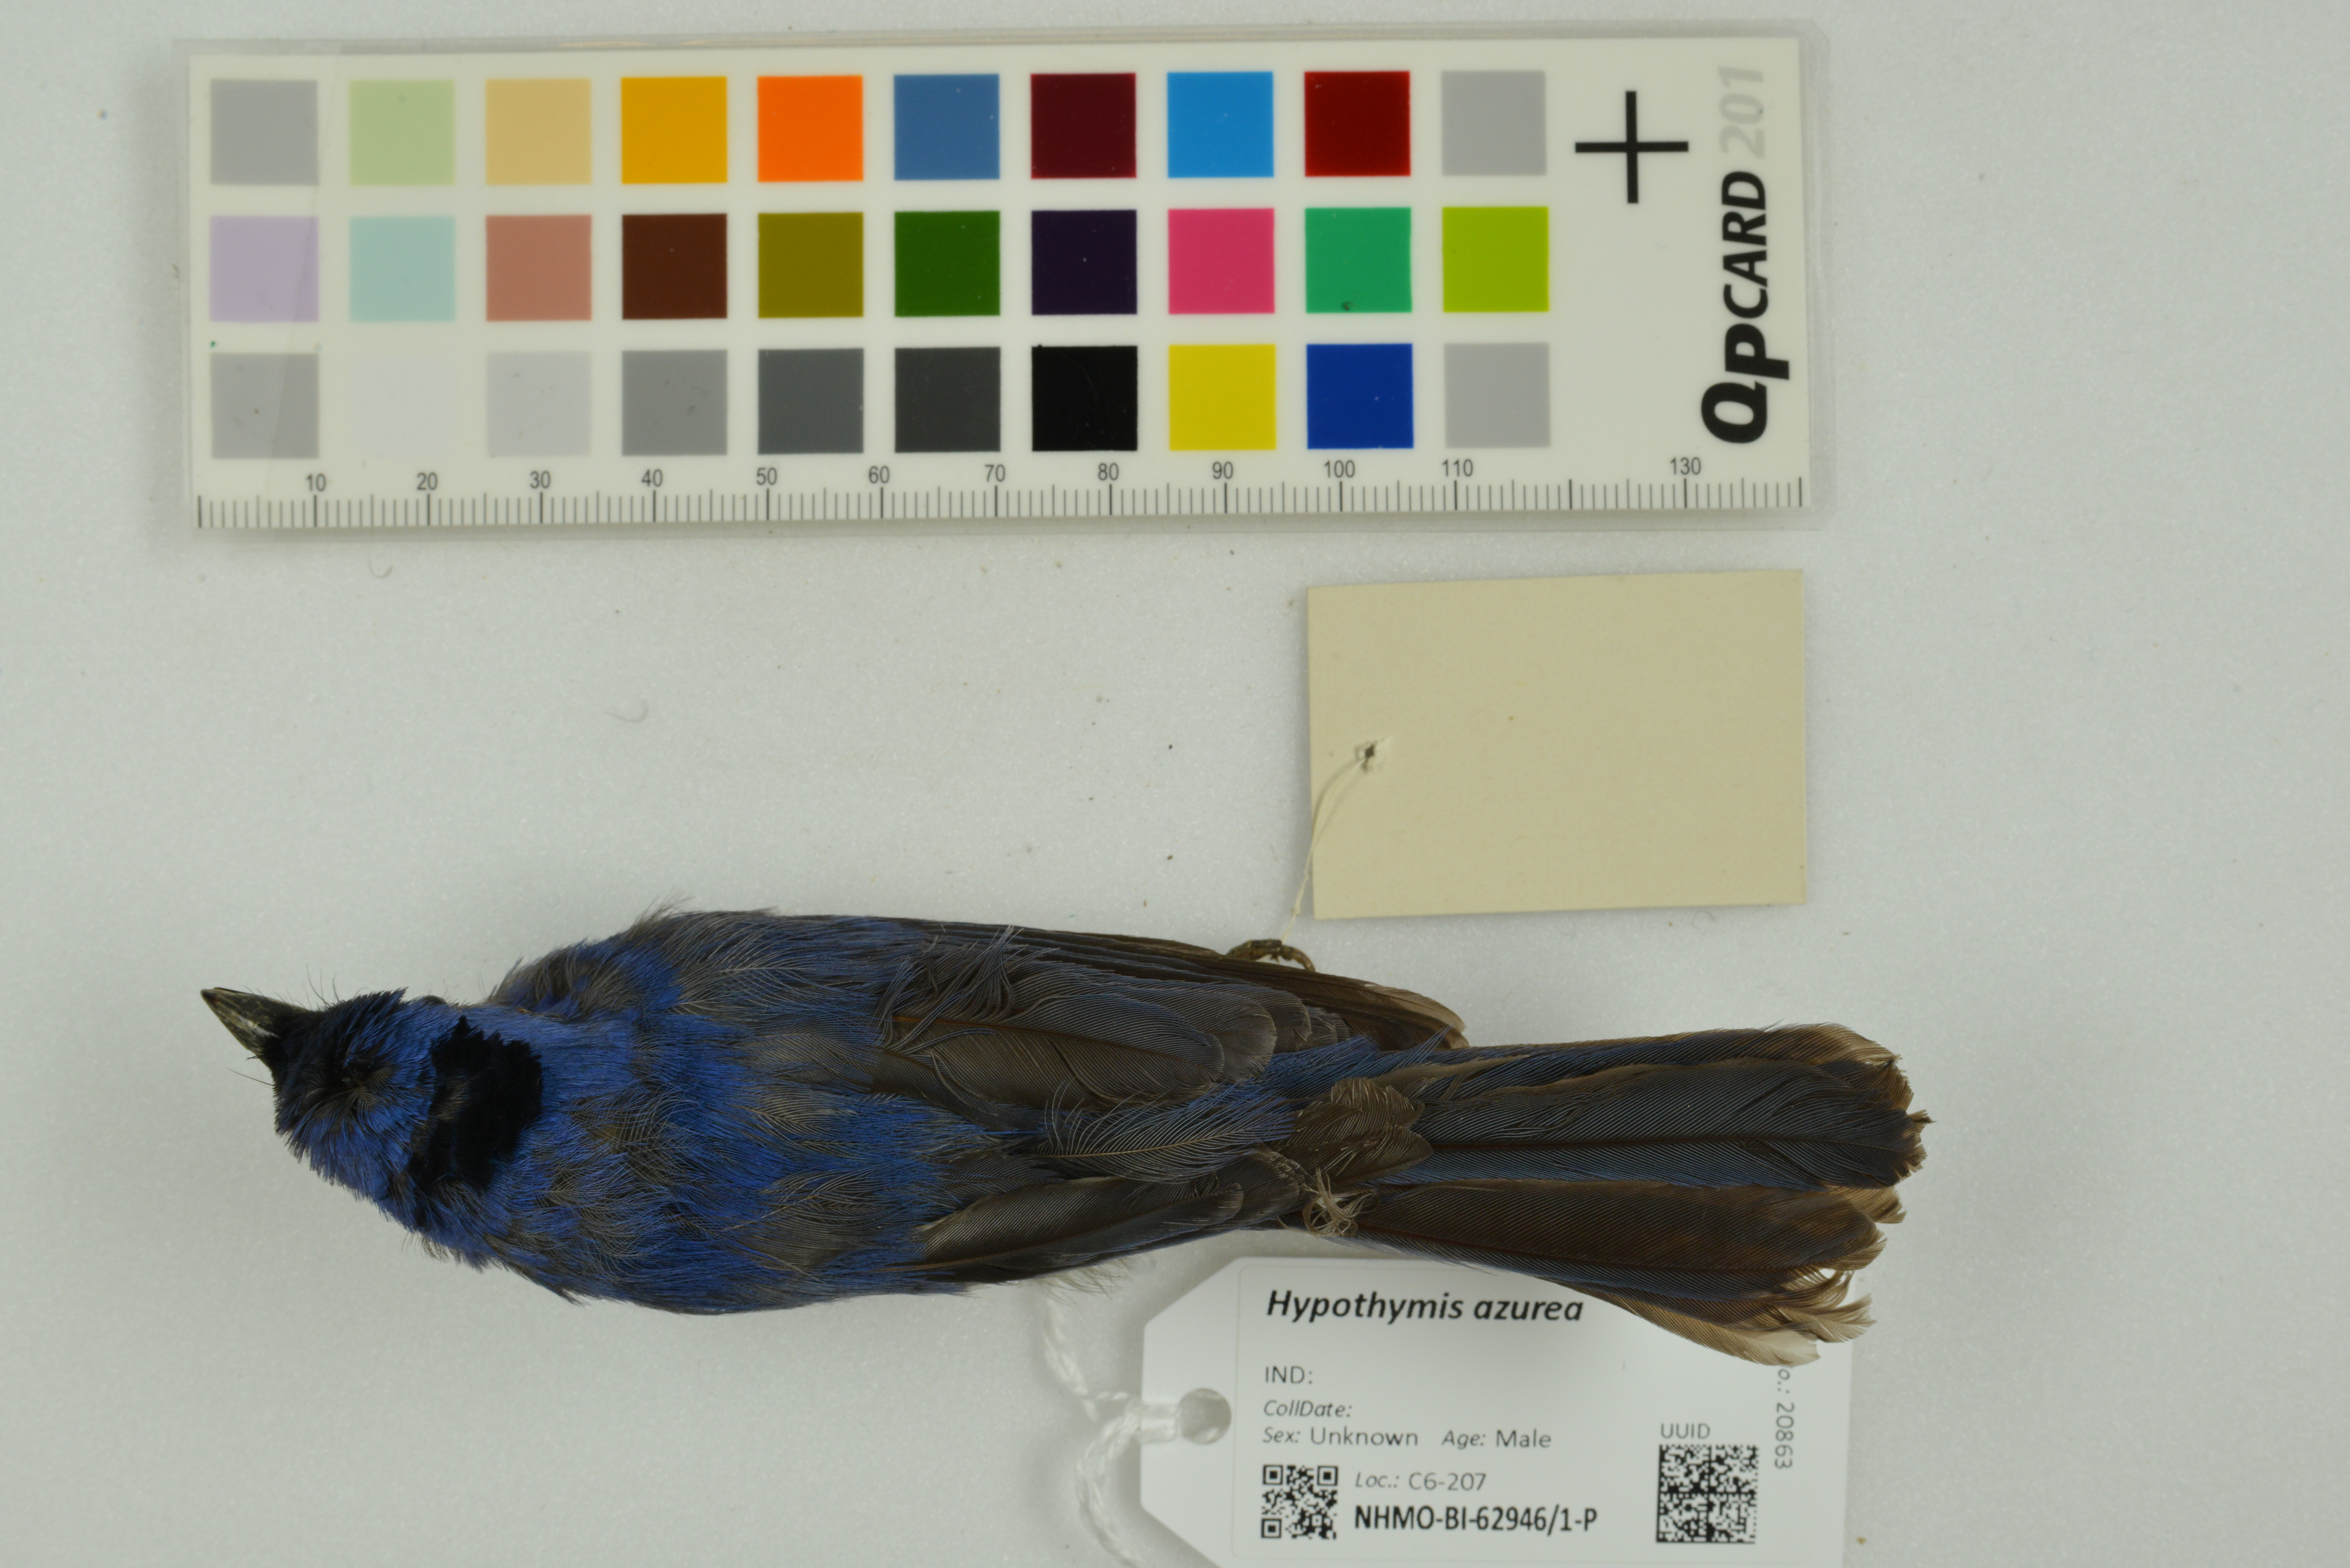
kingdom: Animalia
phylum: Chordata
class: Aves
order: Passeriformes
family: Monarchidae
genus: Hypothymis
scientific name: Hypothymis azurea
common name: Black-naped monarch
